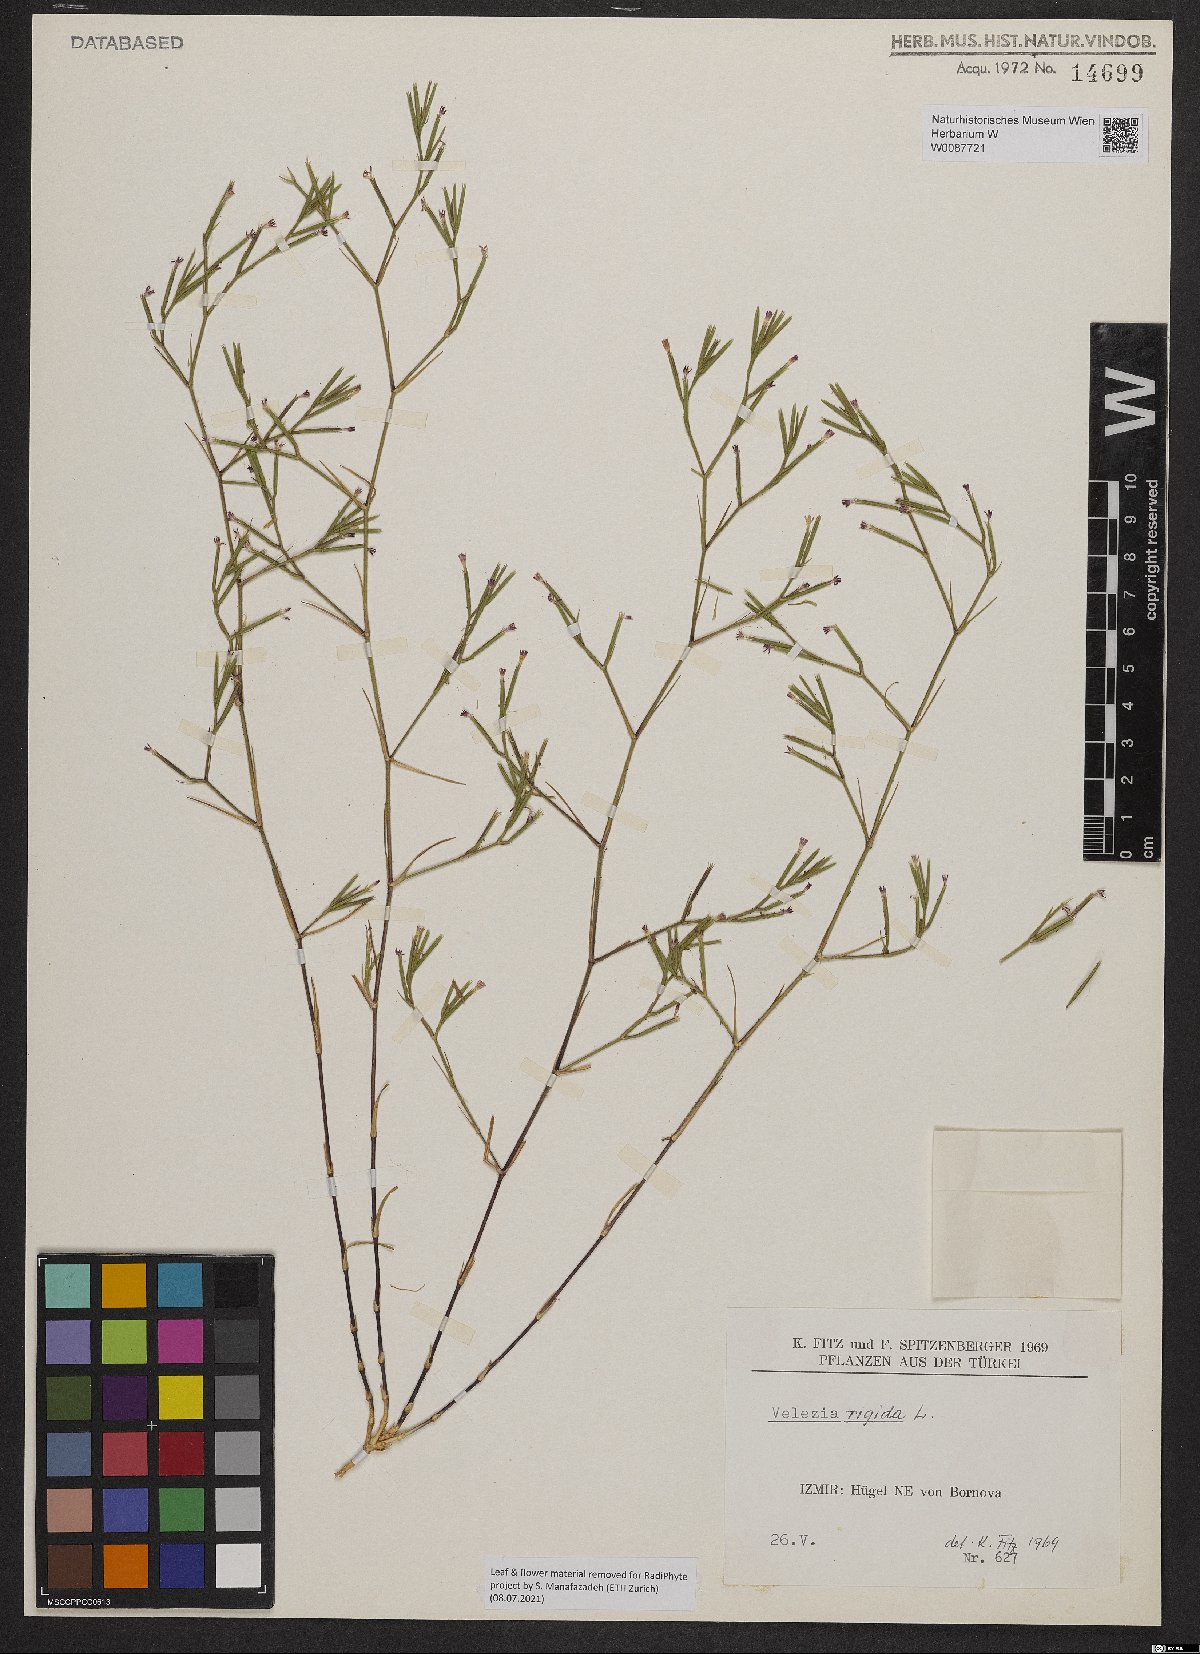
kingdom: Plantae
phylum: Tracheophyta
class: Magnoliopsida
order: Caryophyllales
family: Caryophyllaceae
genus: Dianthus
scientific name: Dianthus nudiflorus
